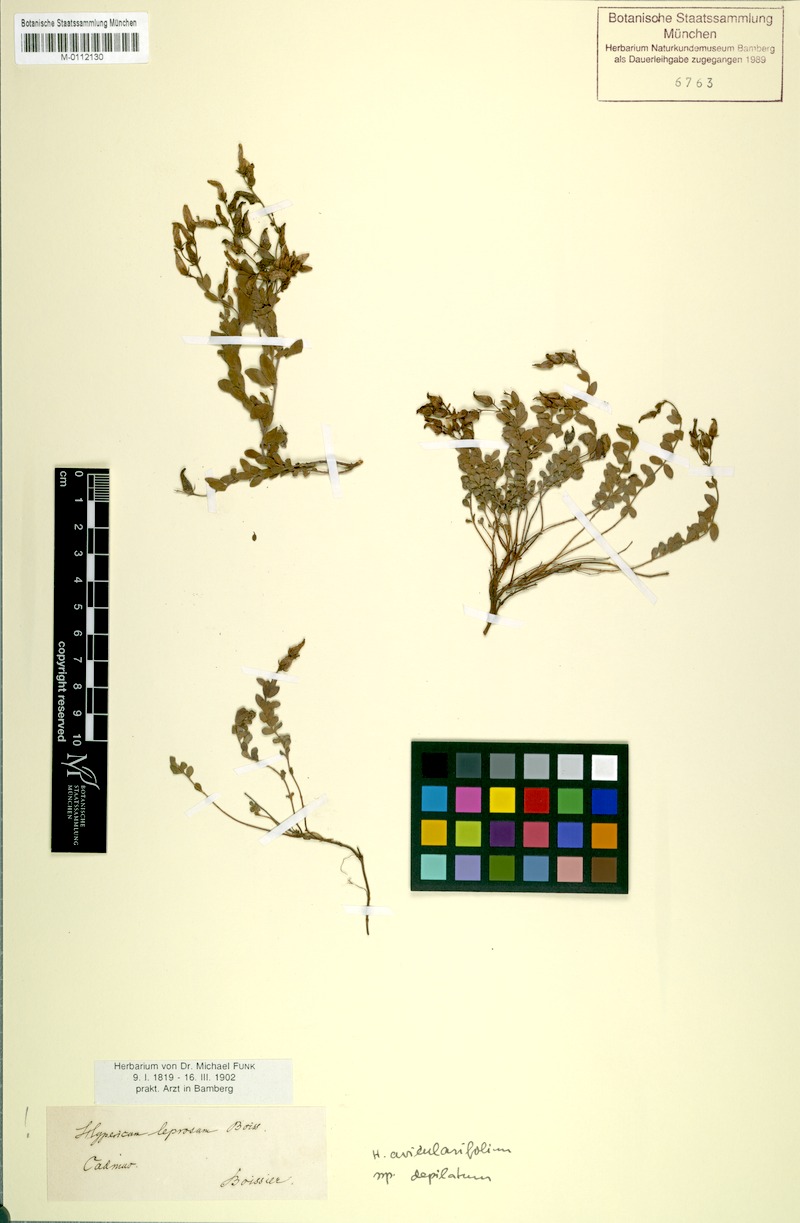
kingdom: Plantae
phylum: Tracheophyta
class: Magnoliopsida
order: Malpighiales
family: Hypericaceae
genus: Hypericum
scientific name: Hypericum aviculariifolium
